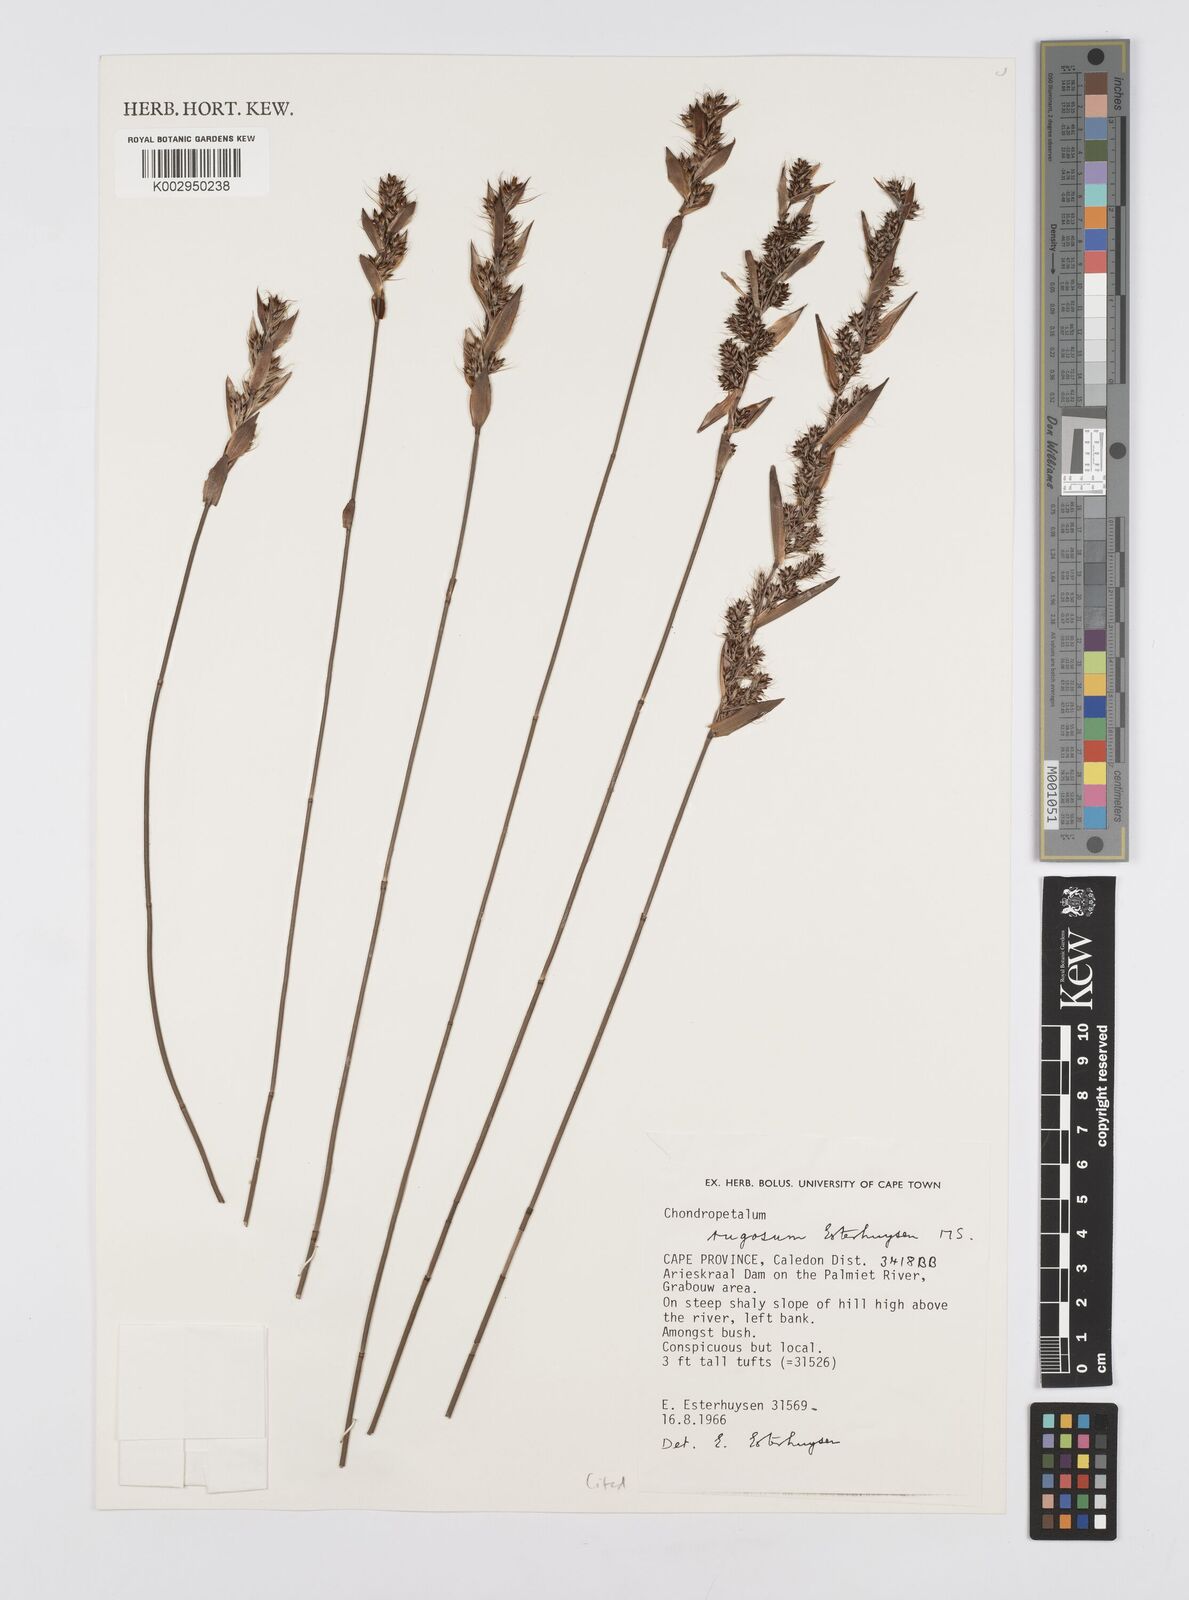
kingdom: Plantae
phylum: Tracheophyta
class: Liliopsida
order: Poales
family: Restionaceae
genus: Askidiosperma
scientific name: Askidiosperma rugosum
